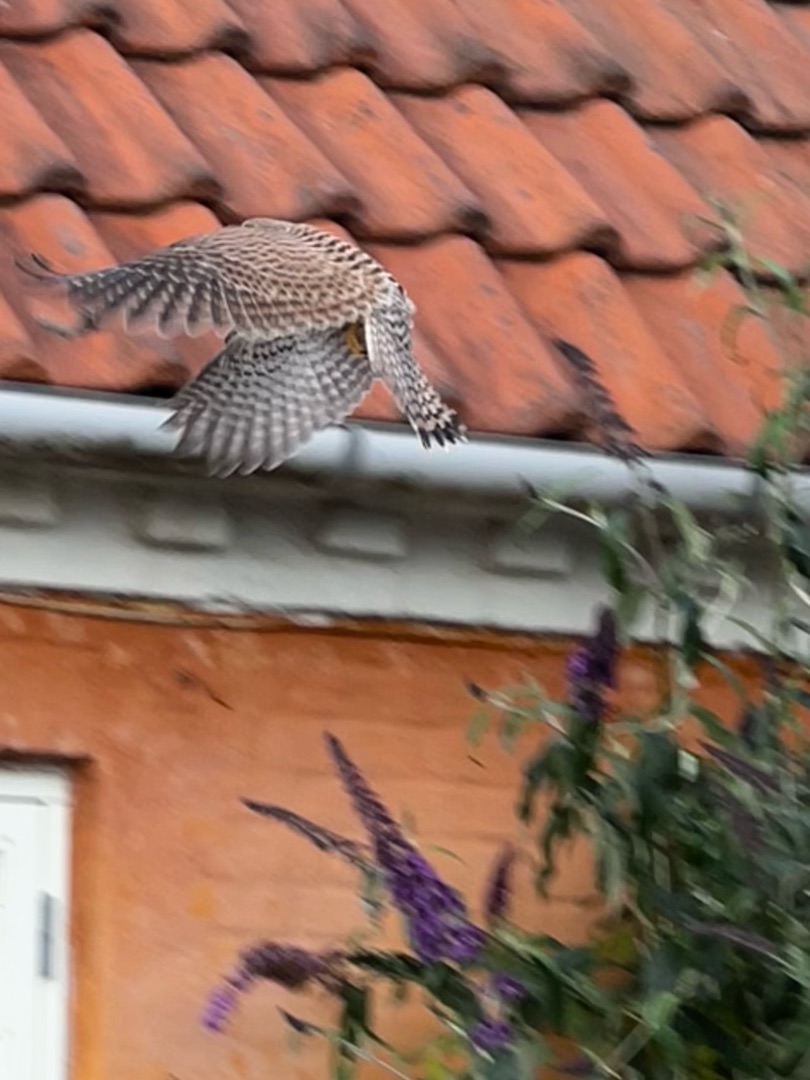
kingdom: Animalia
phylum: Chordata
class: Aves
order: Falconiformes
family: Falconidae
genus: Falco
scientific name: Falco tinnunculus
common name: Tårnfalk
